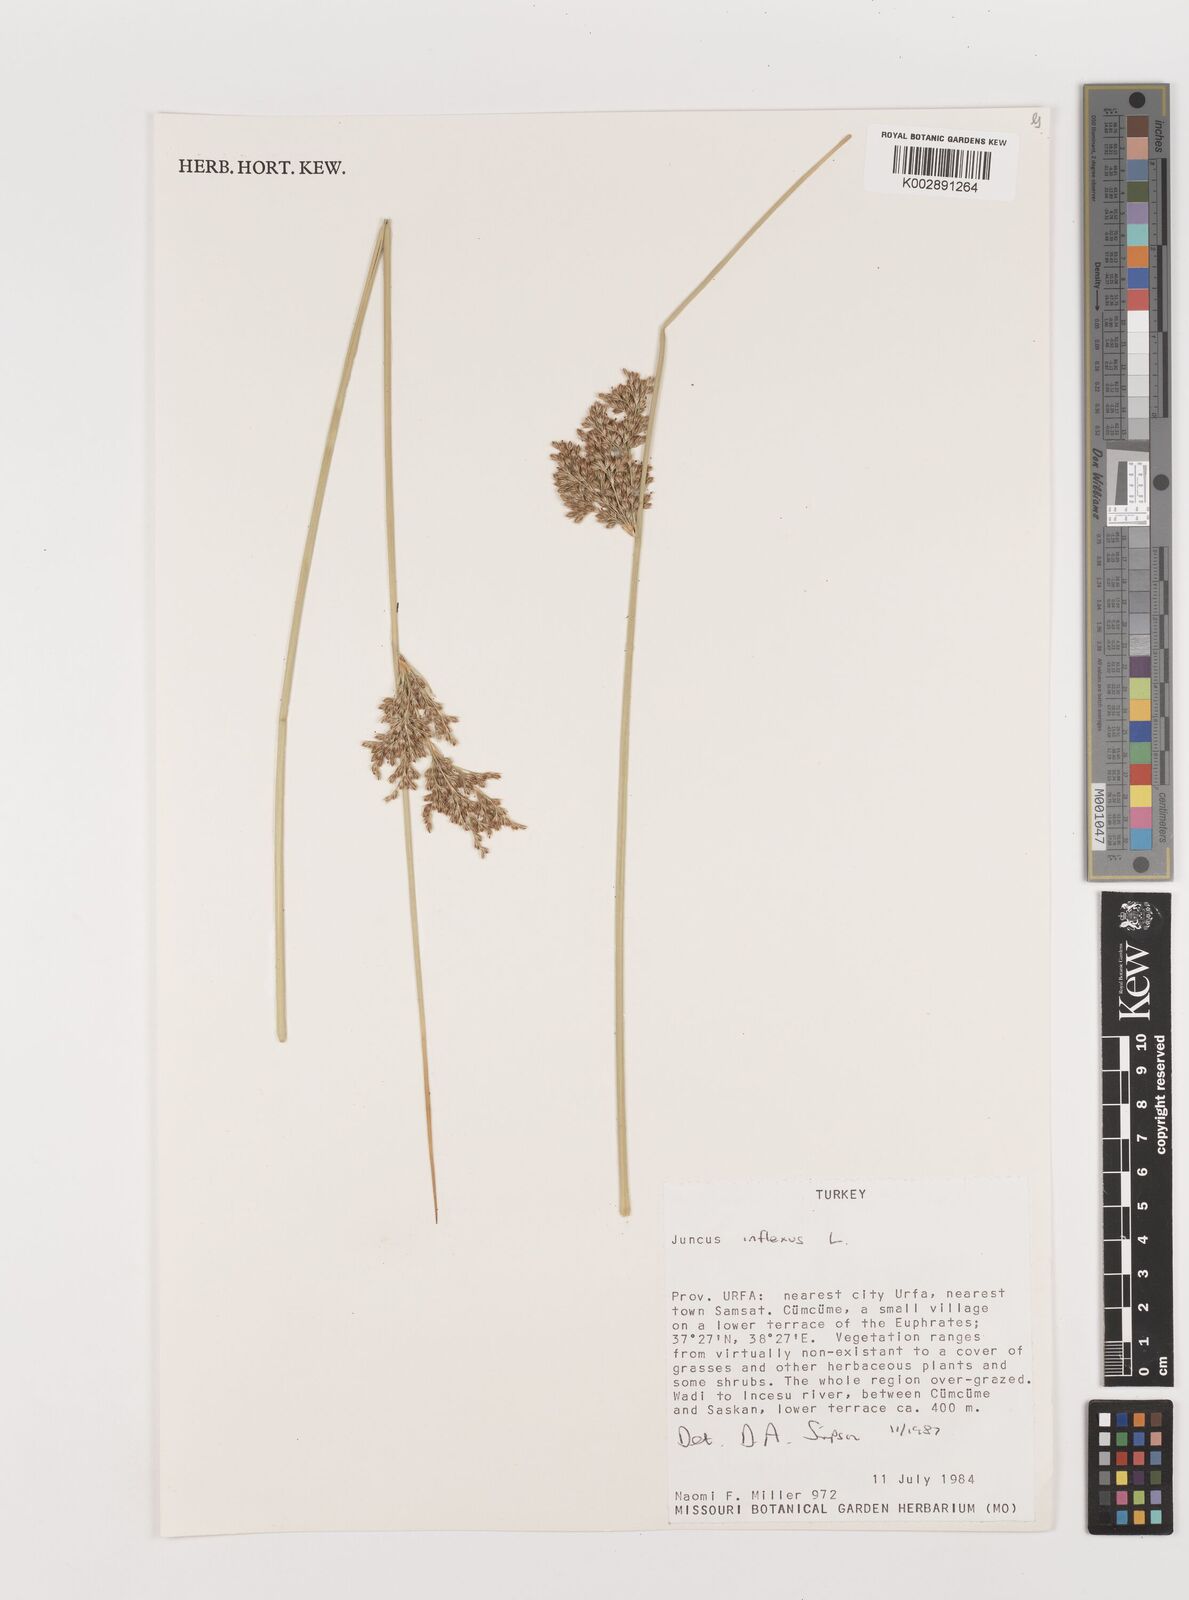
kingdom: Plantae
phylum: Tracheophyta
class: Liliopsida
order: Poales
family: Juncaceae
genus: Juncus
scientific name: Juncus inflexus
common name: Hard rush
